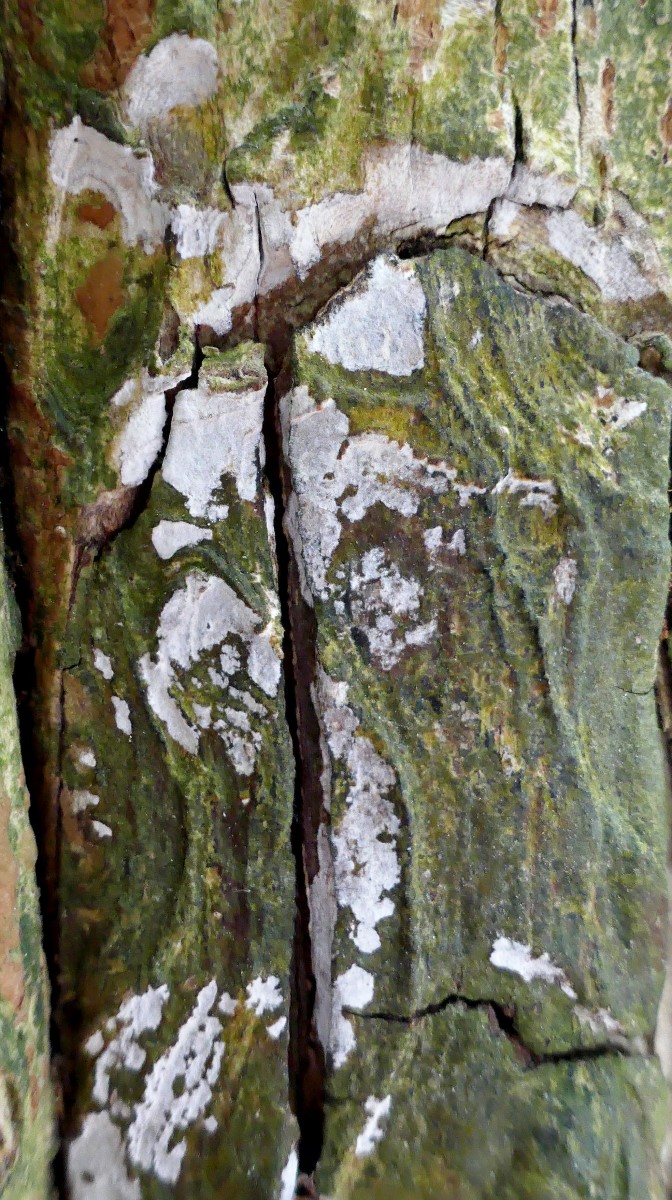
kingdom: Fungi
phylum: Basidiomycota
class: Agaricomycetes
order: Agaricales
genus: Dendrothele
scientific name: Dendrothele acerina
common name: navr-kalkplet
